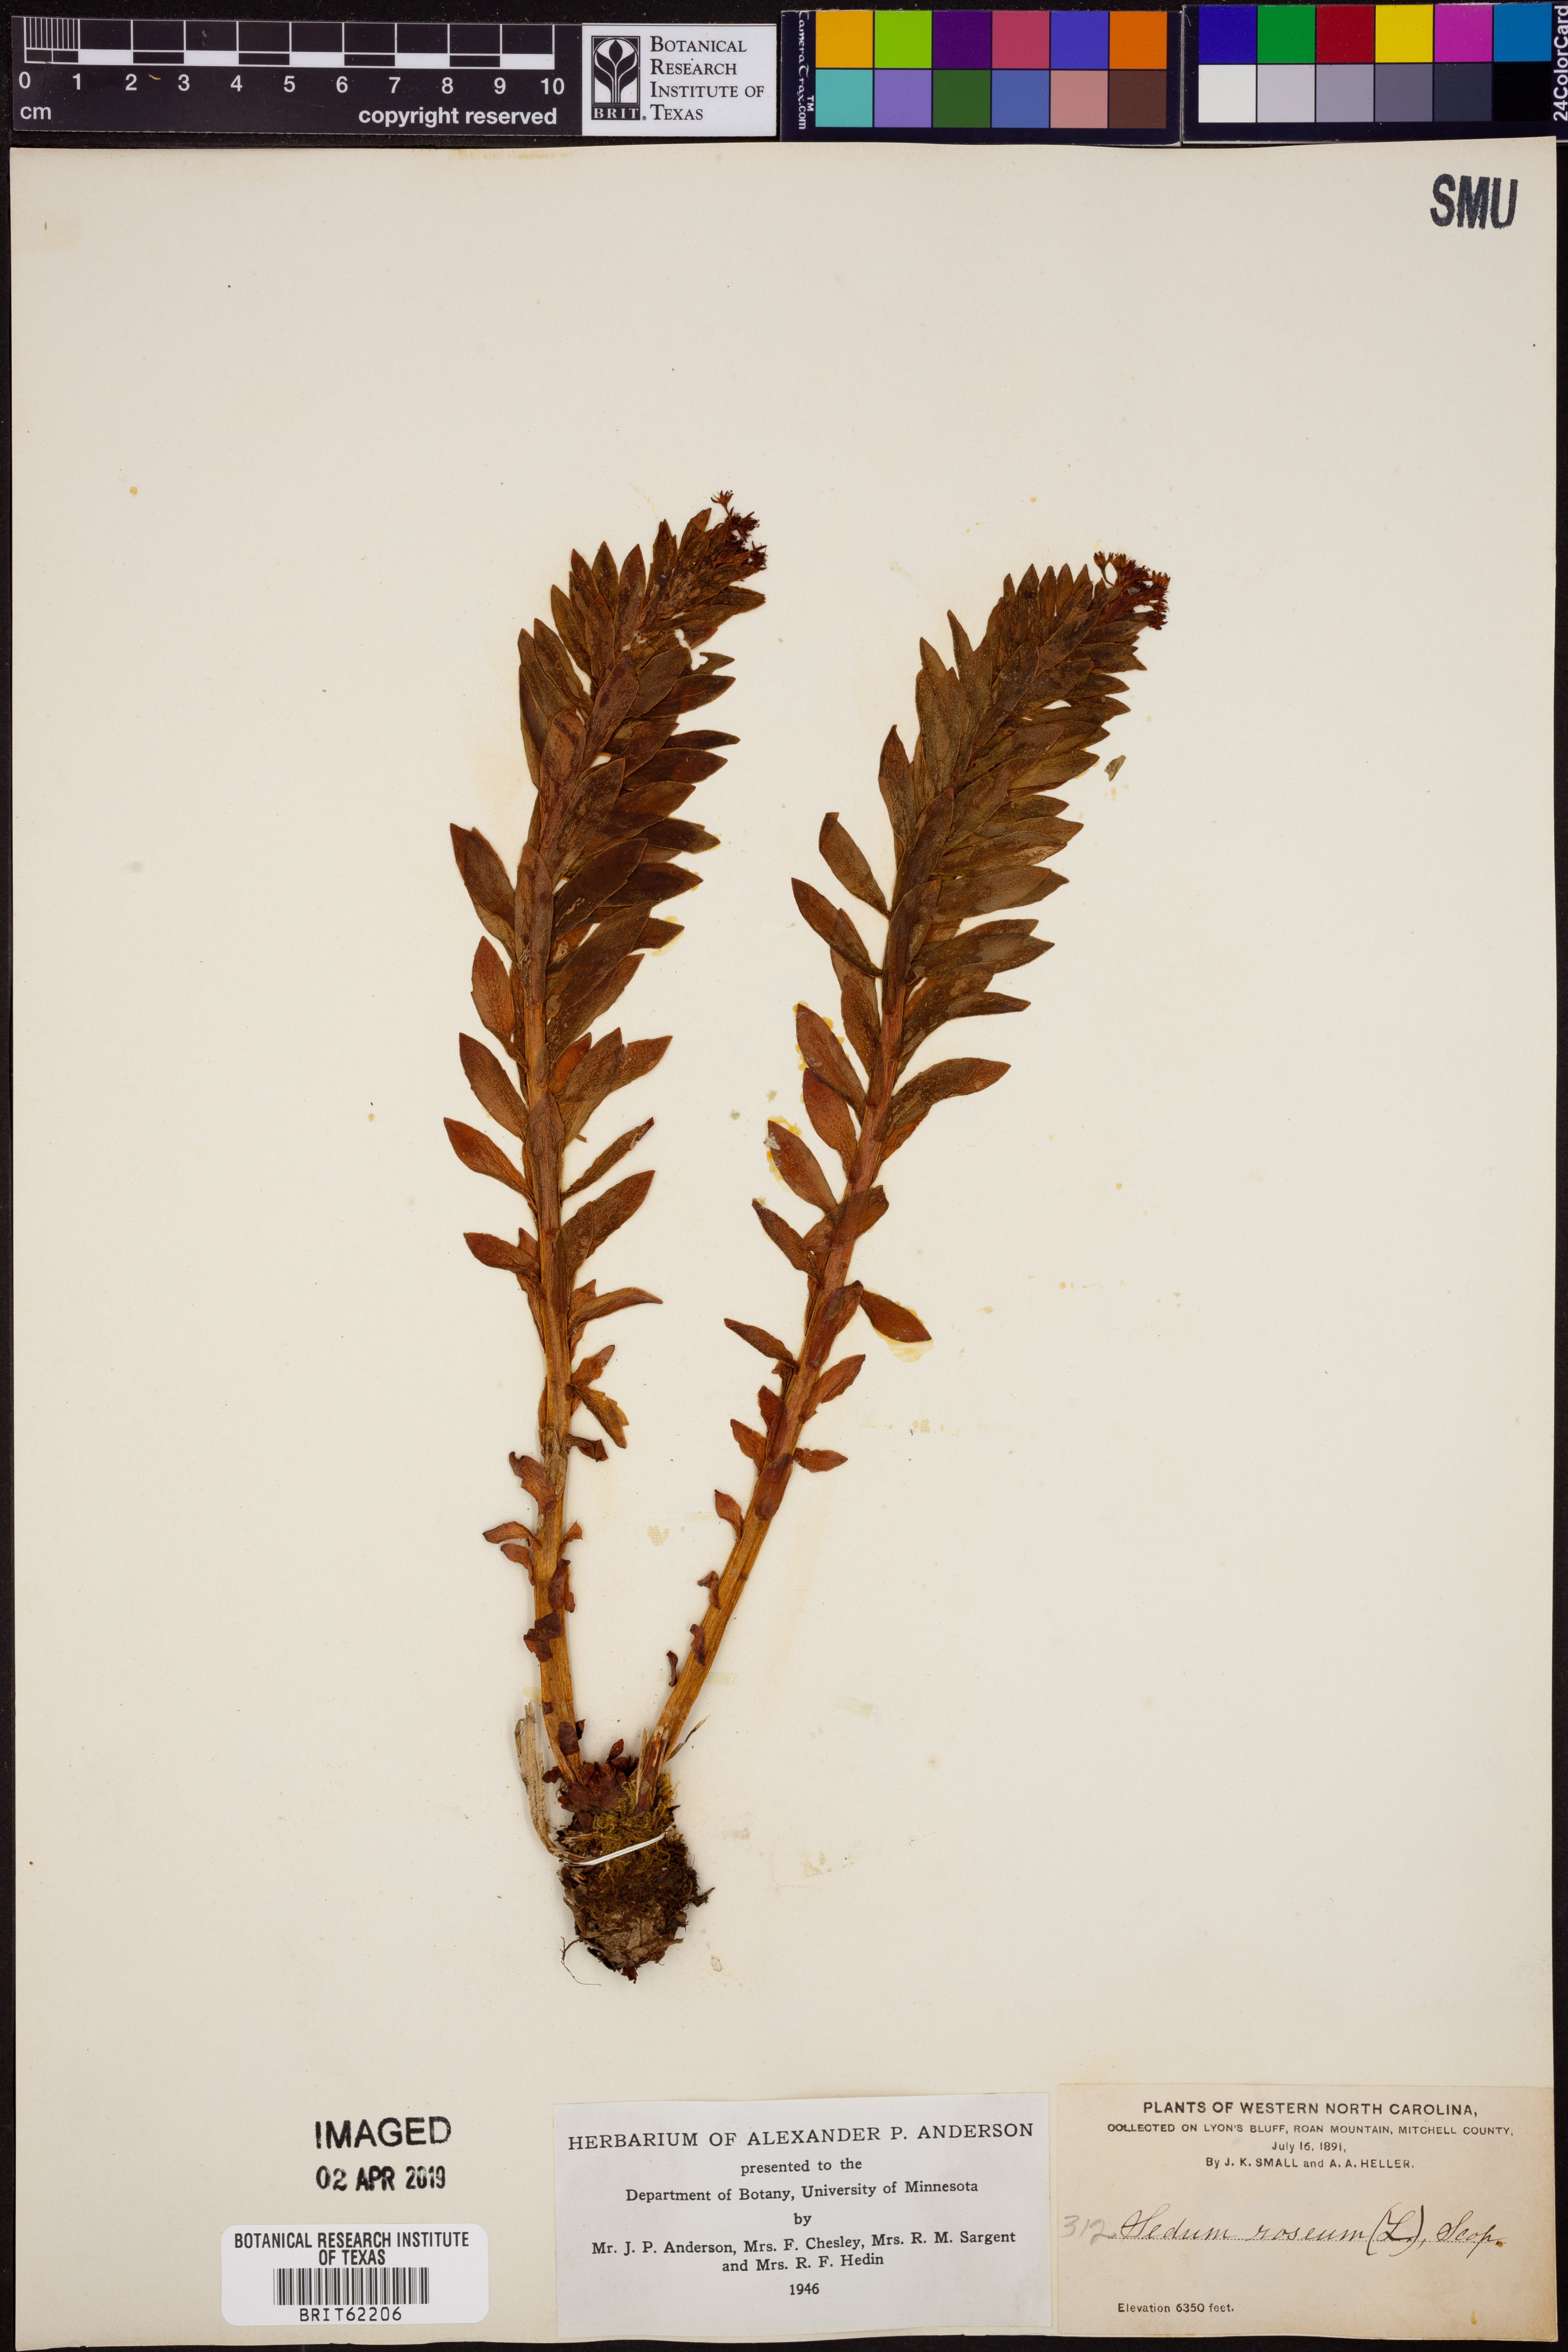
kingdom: Plantae
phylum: Tracheophyta
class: Magnoliopsida
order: Saxifragales
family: Crassulaceae
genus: Rhodiola
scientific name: Rhodiola rosea
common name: Roseroot
